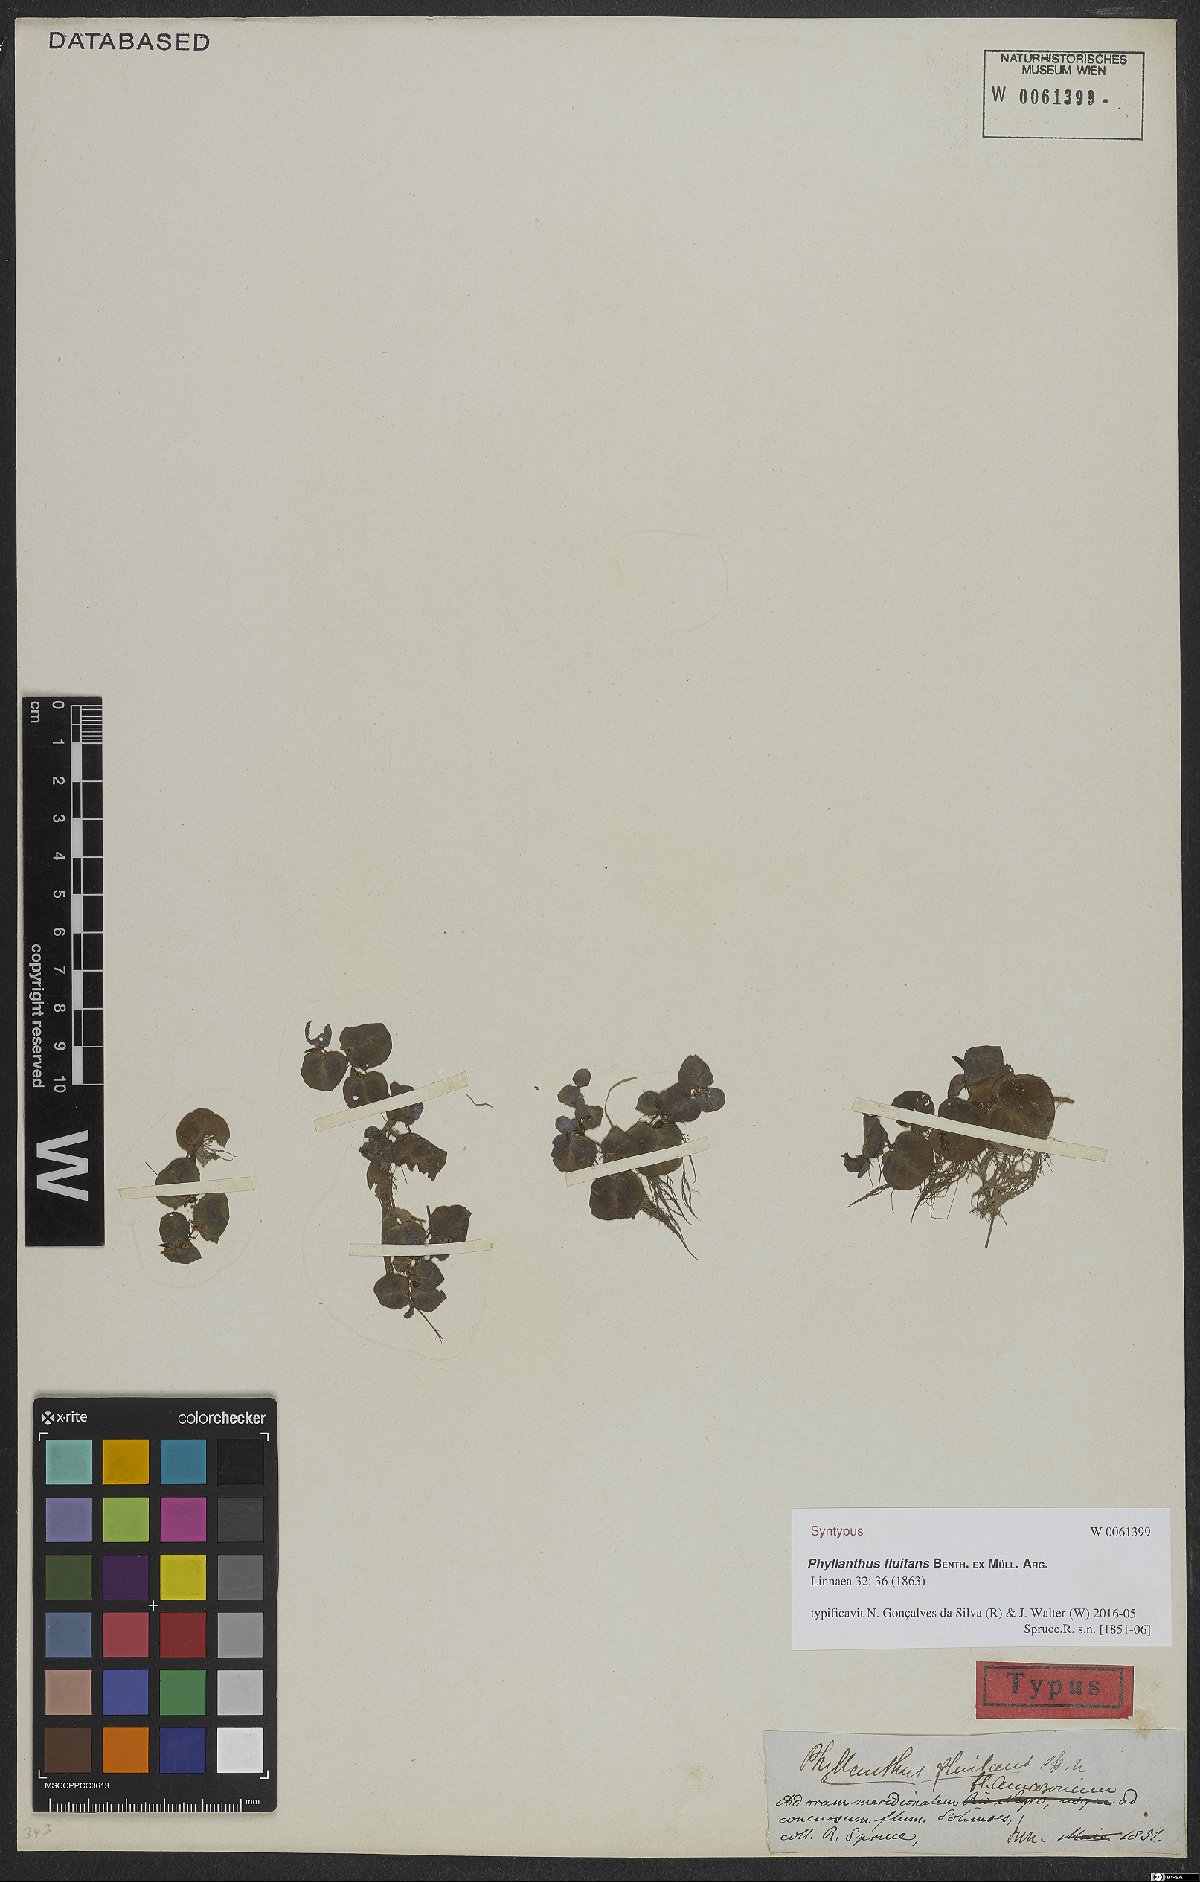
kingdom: Plantae
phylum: Tracheophyta
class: Magnoliopsida
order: Malpighiales
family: Phyllanthaceae
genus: Phyllanthus
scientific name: Phyllanthus fluitans
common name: Floating spurge
